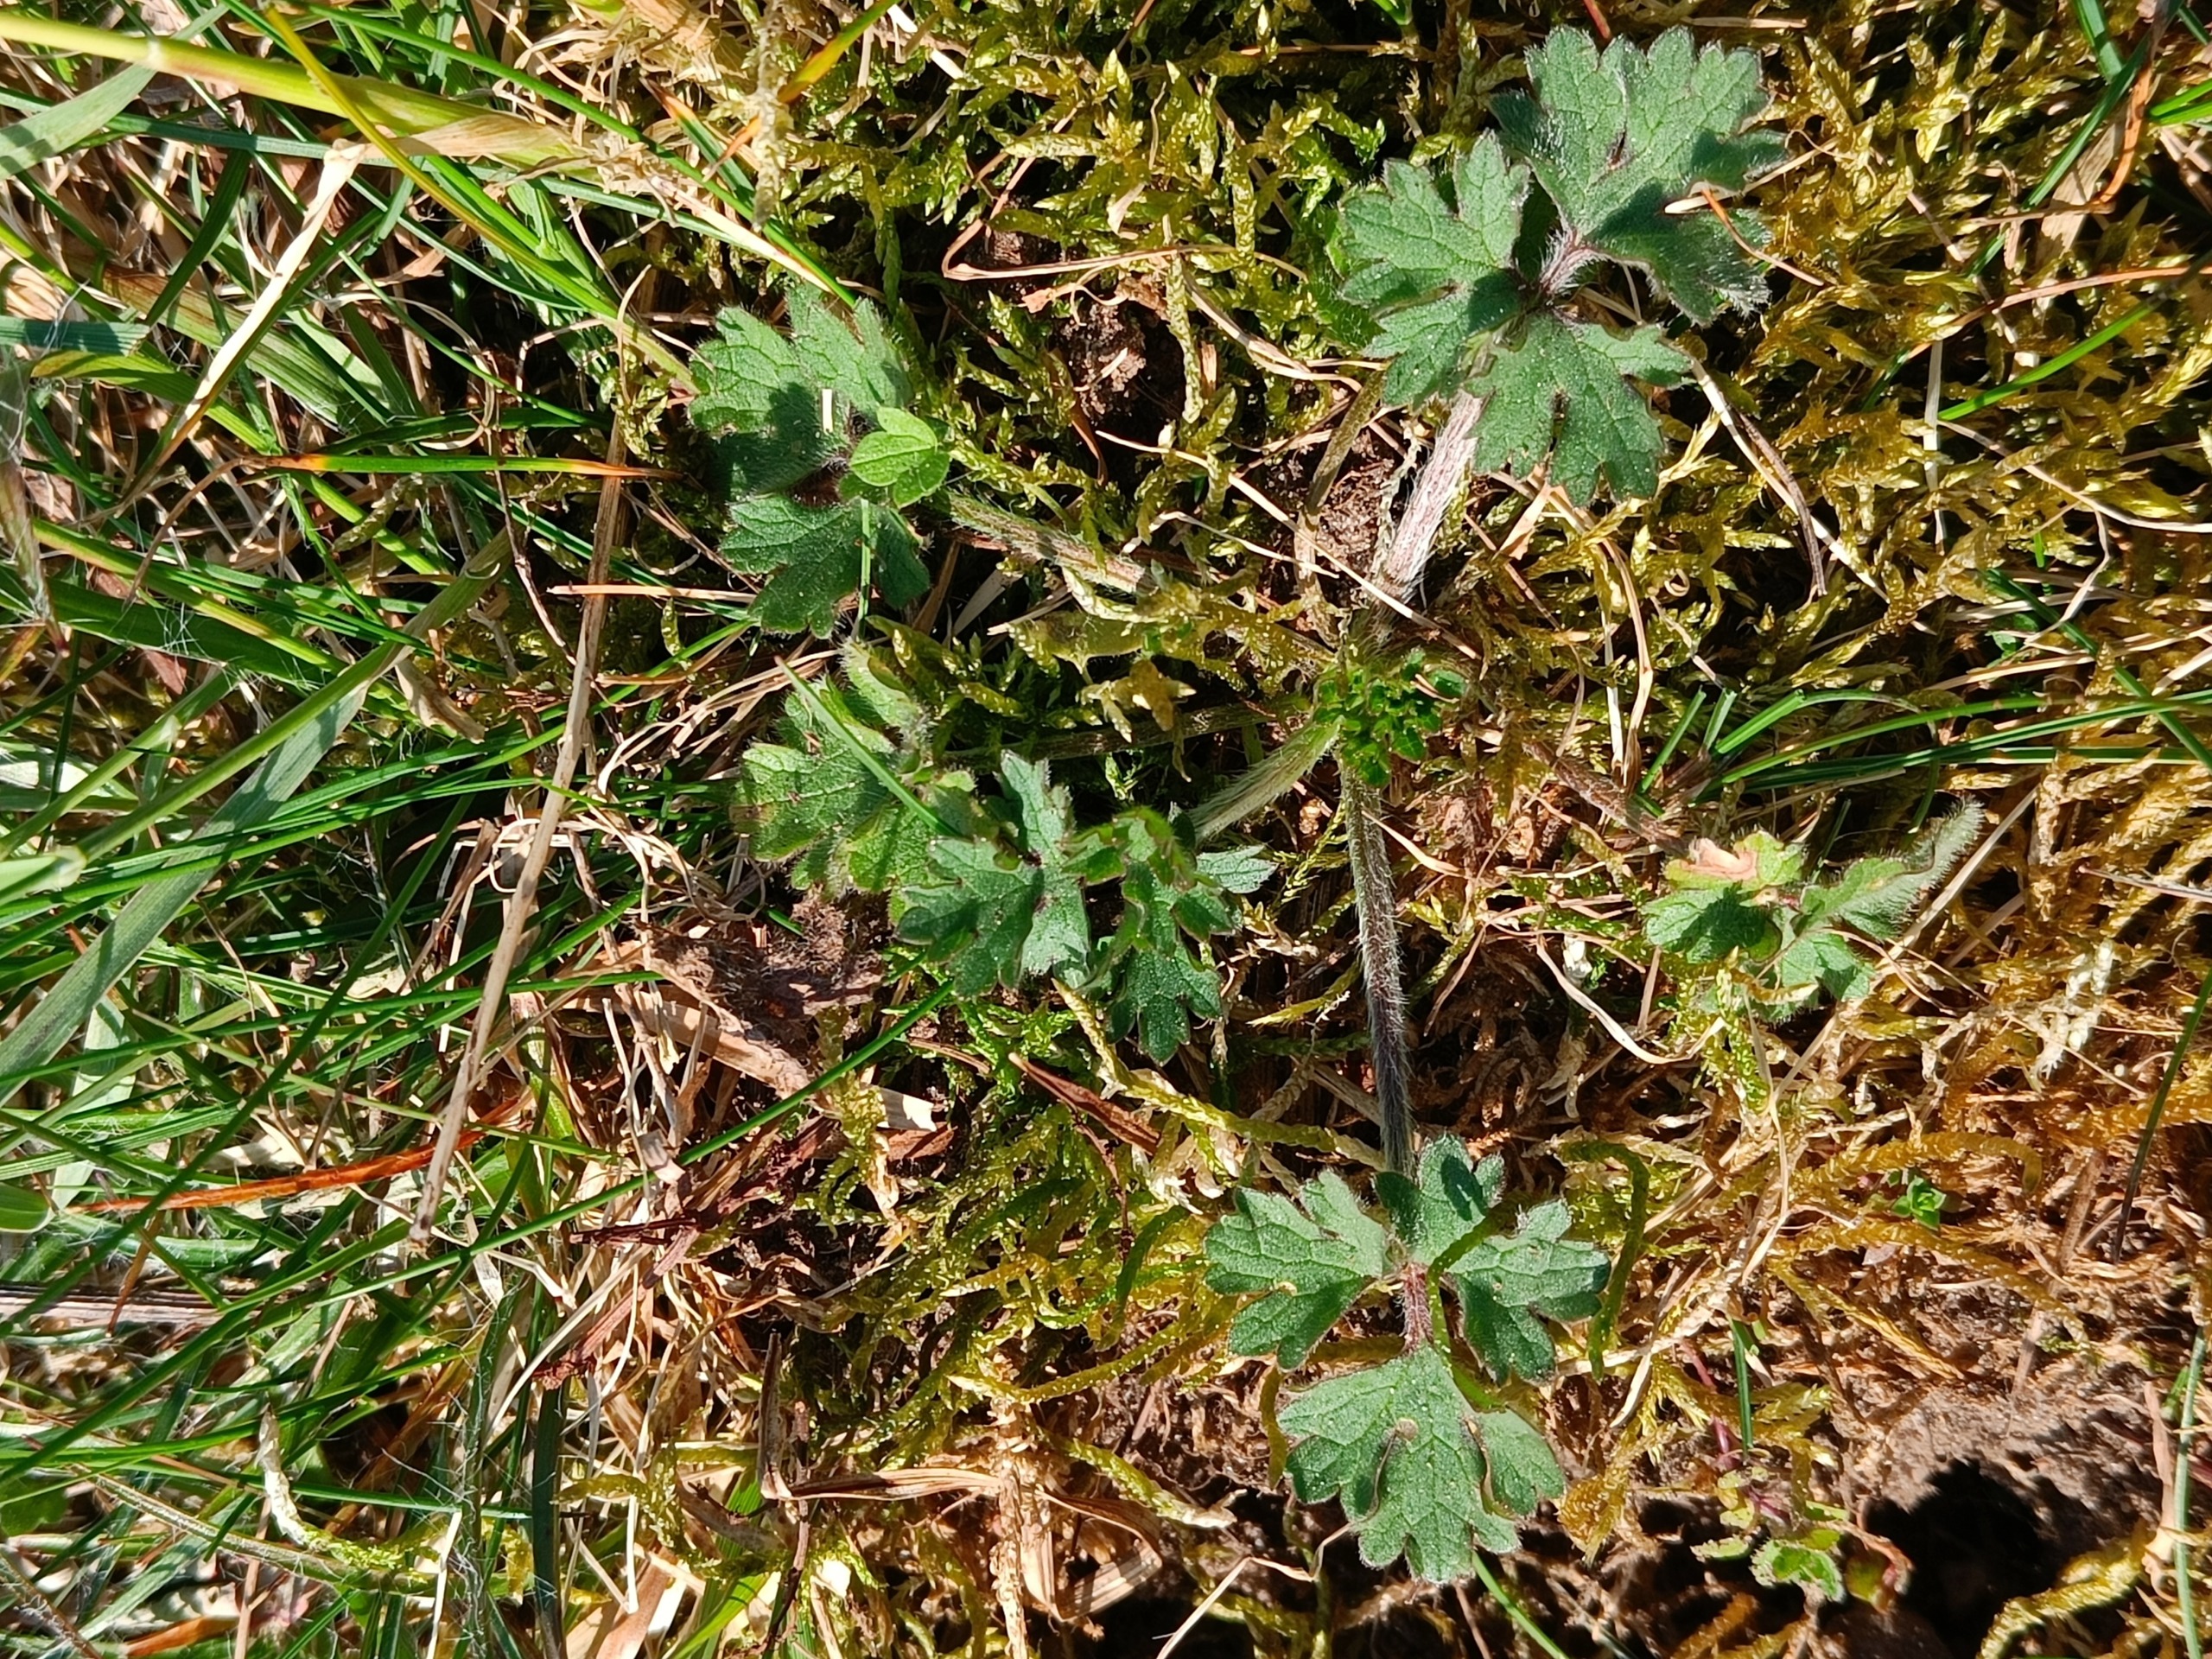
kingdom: Plantae
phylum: Tracheophyta
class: Magnoliopsida
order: Ranunculales
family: Ranunculaceae
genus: Ranunculus
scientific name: Ranunculus bulbosus
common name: Knold-ranunkel
